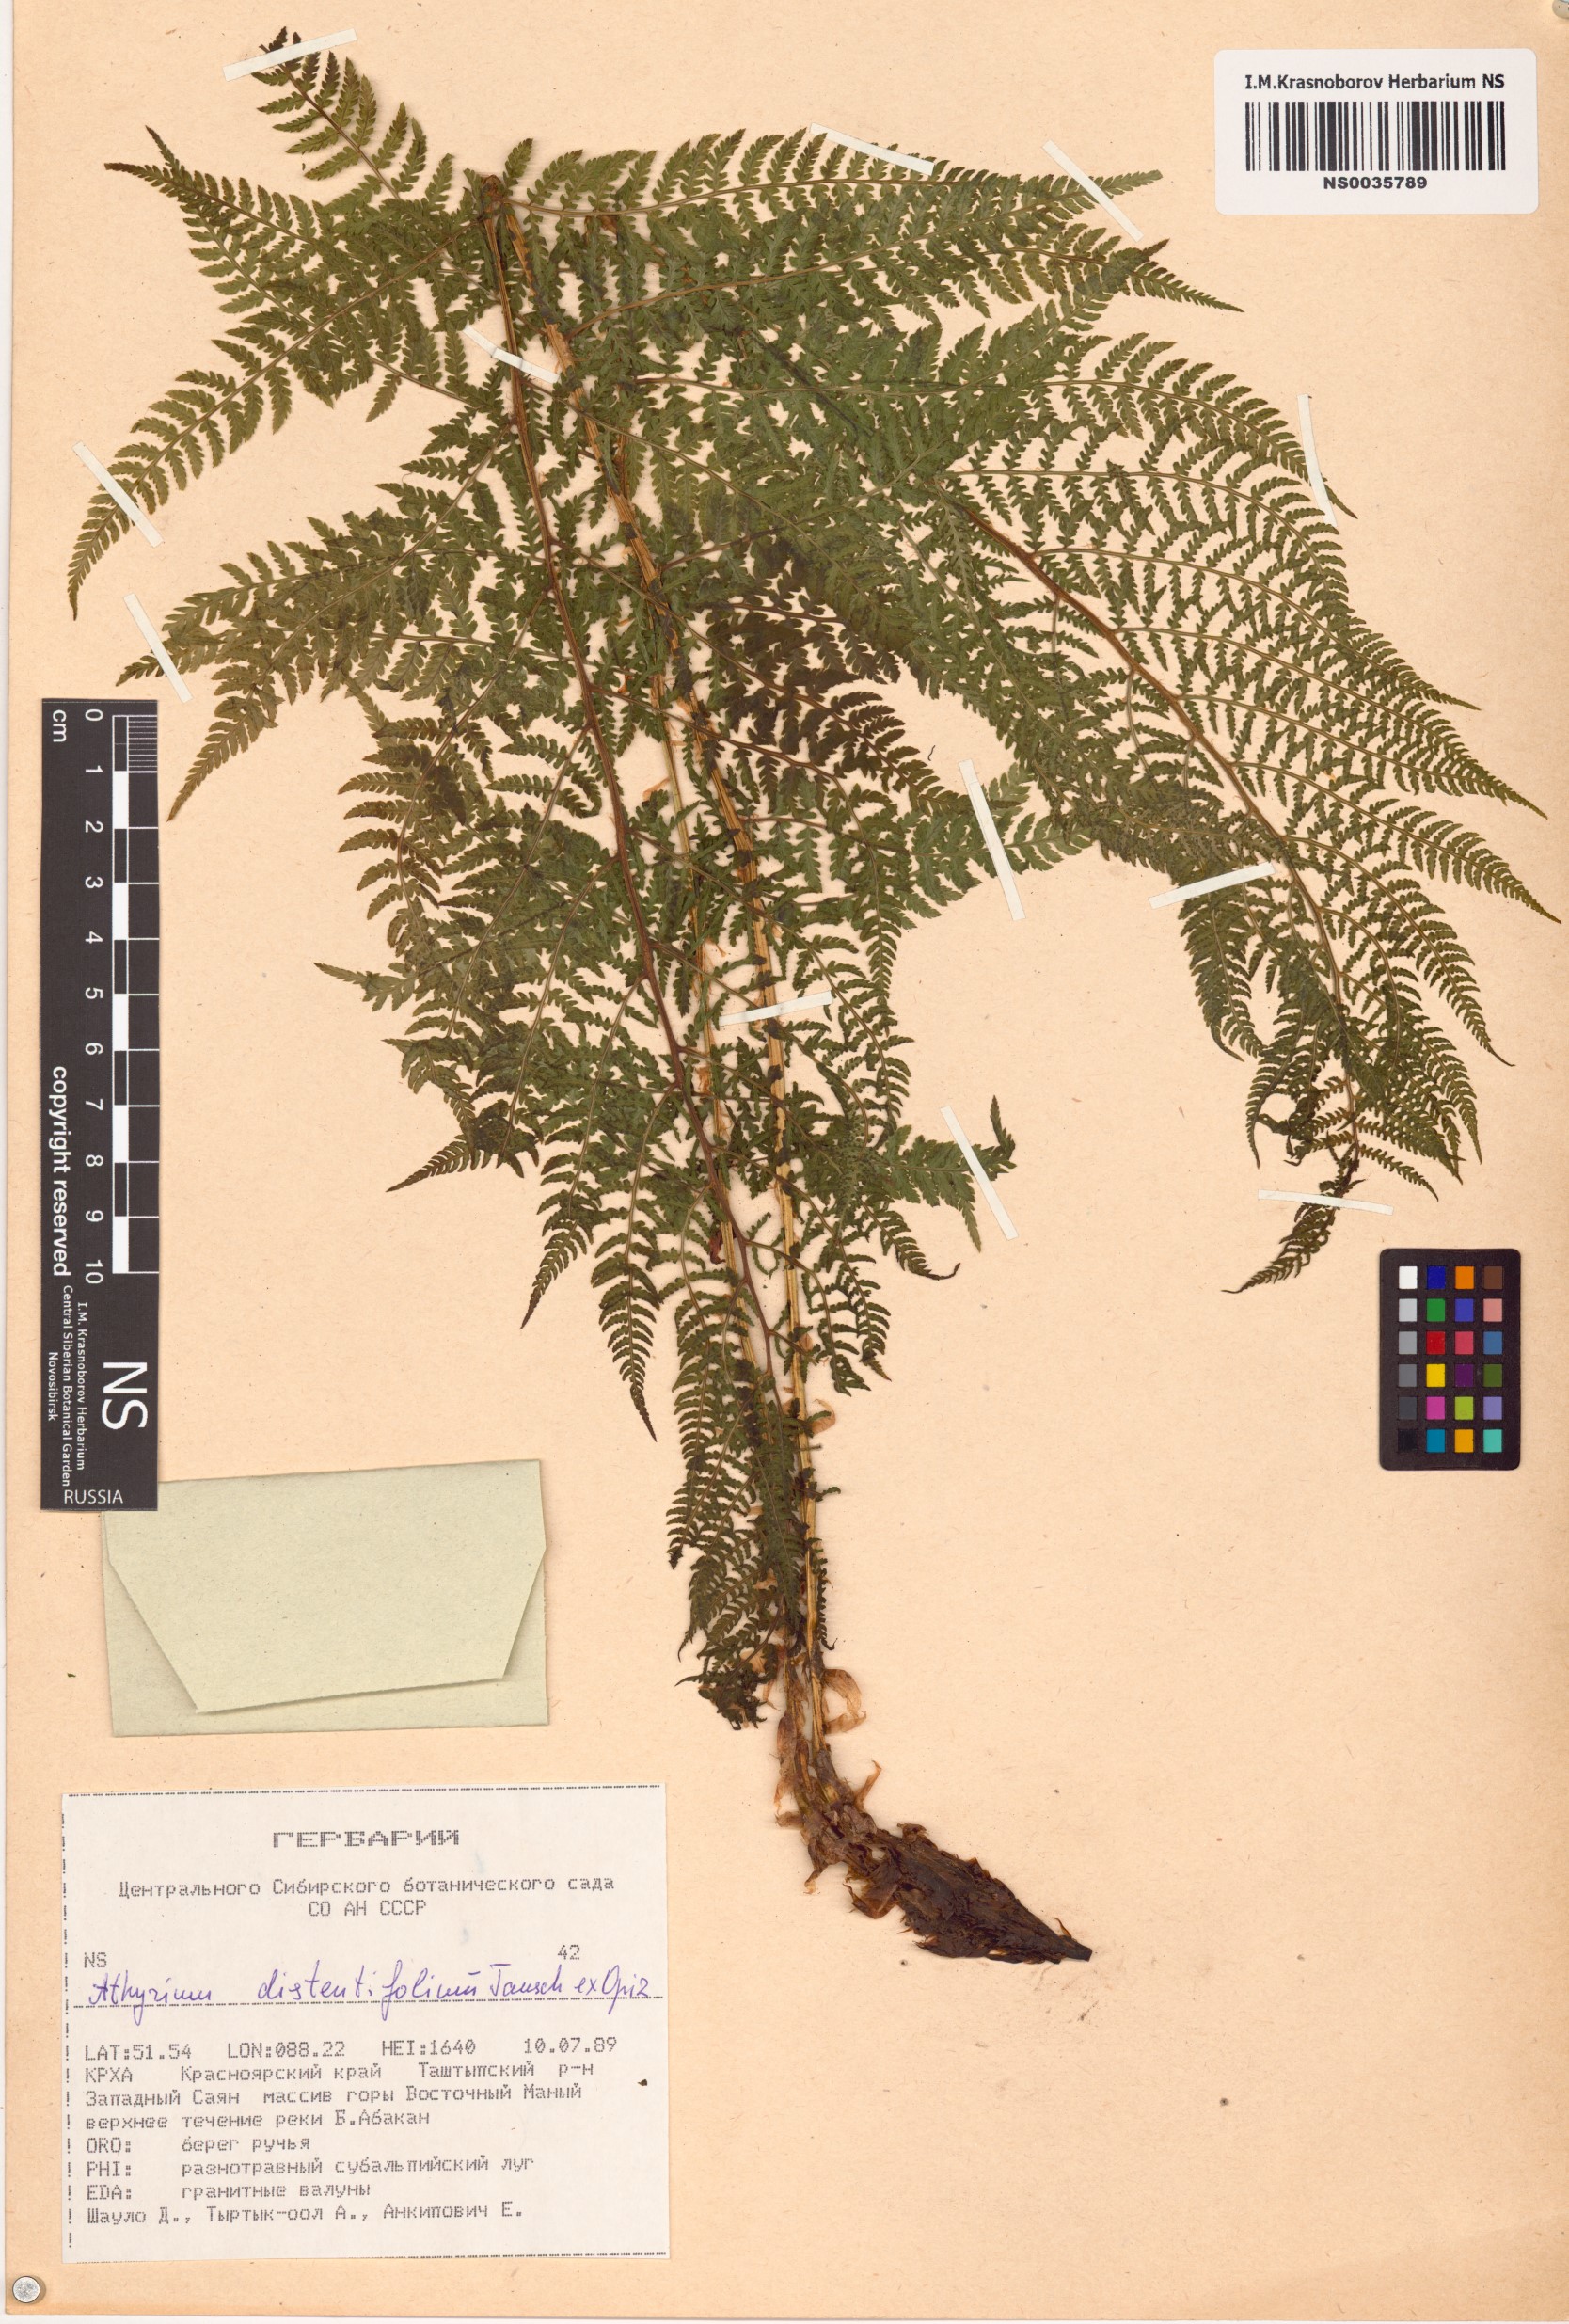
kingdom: Plantae
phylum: Tracheophyta
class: Polypodiopsida
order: Polypodiales
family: Athyriaceae
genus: Pseudathyrium
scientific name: Pseudathyrium alpestre
